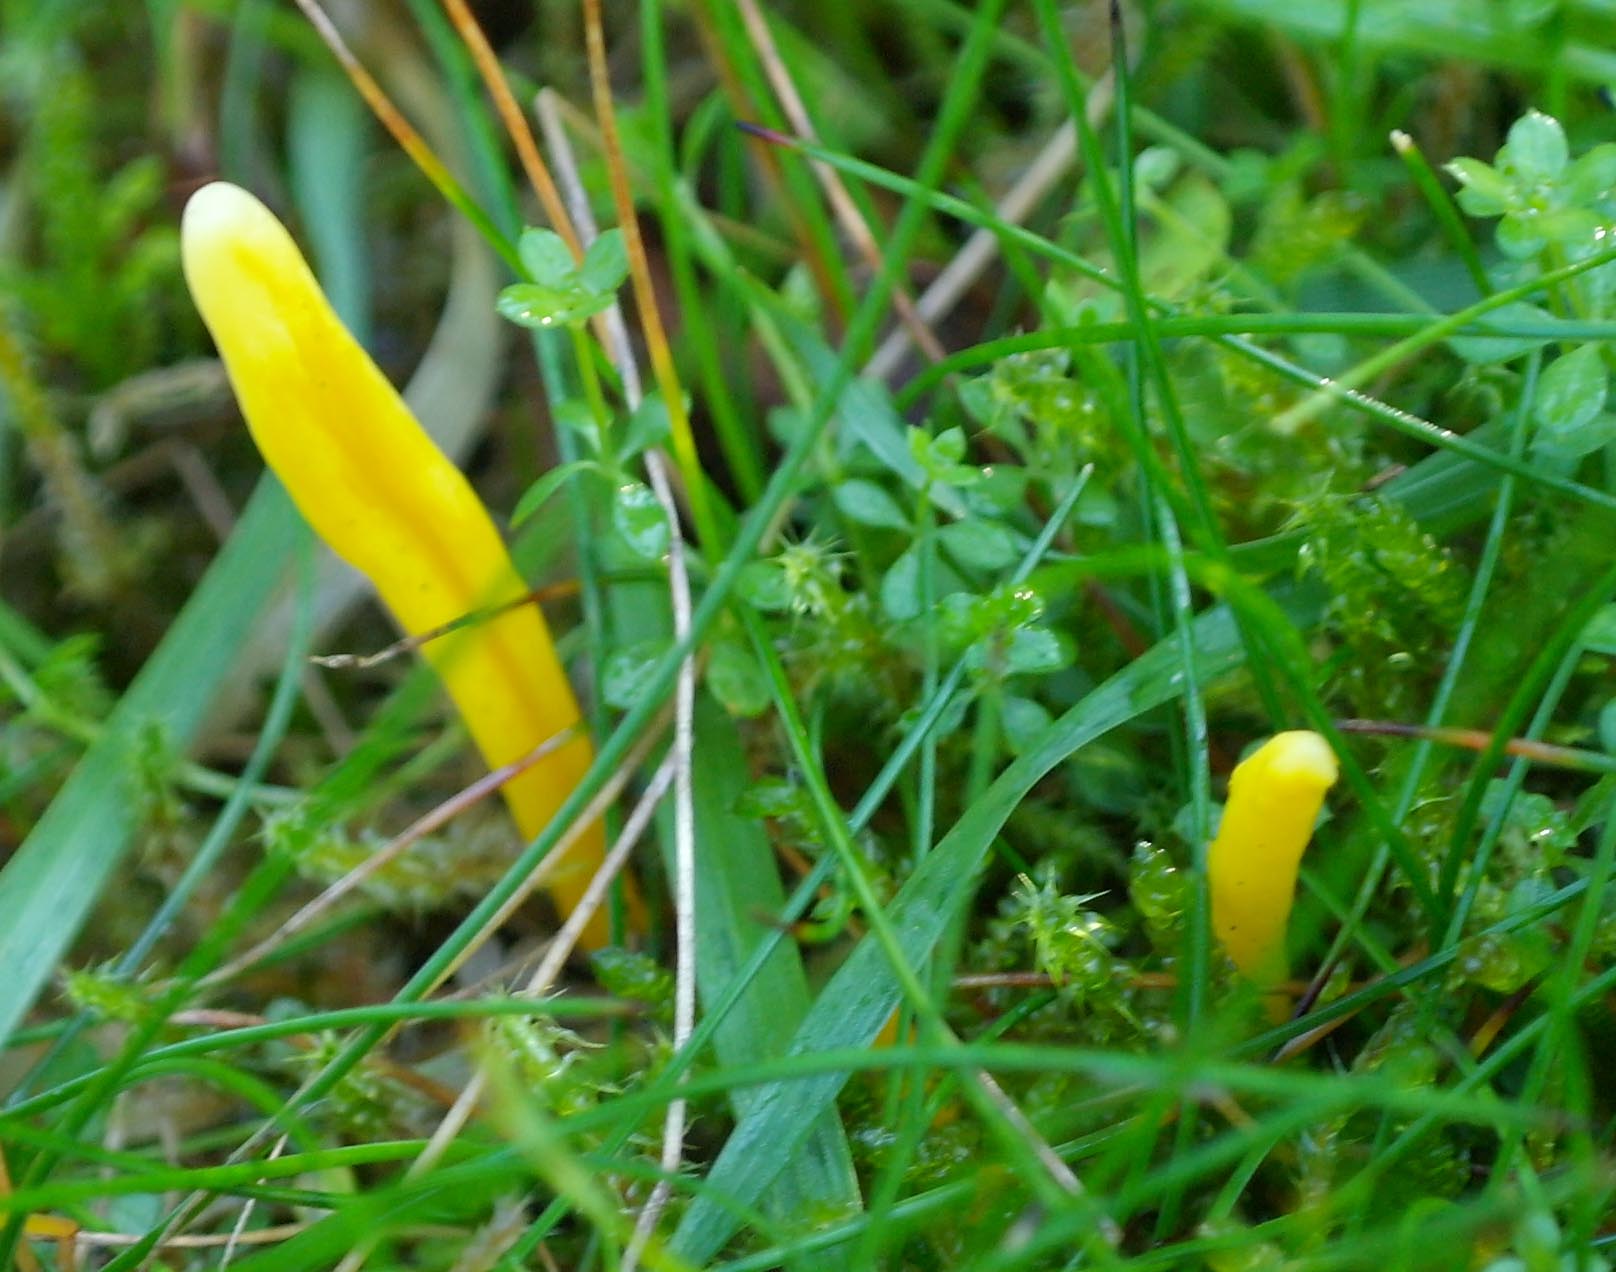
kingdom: Fungi
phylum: Basidiomycota
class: Agaricomycetes
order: Agaricales
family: Clavariaceae
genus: Clavulinopsis
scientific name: Clavulinopsis helvola
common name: orangegul køllesvamp
